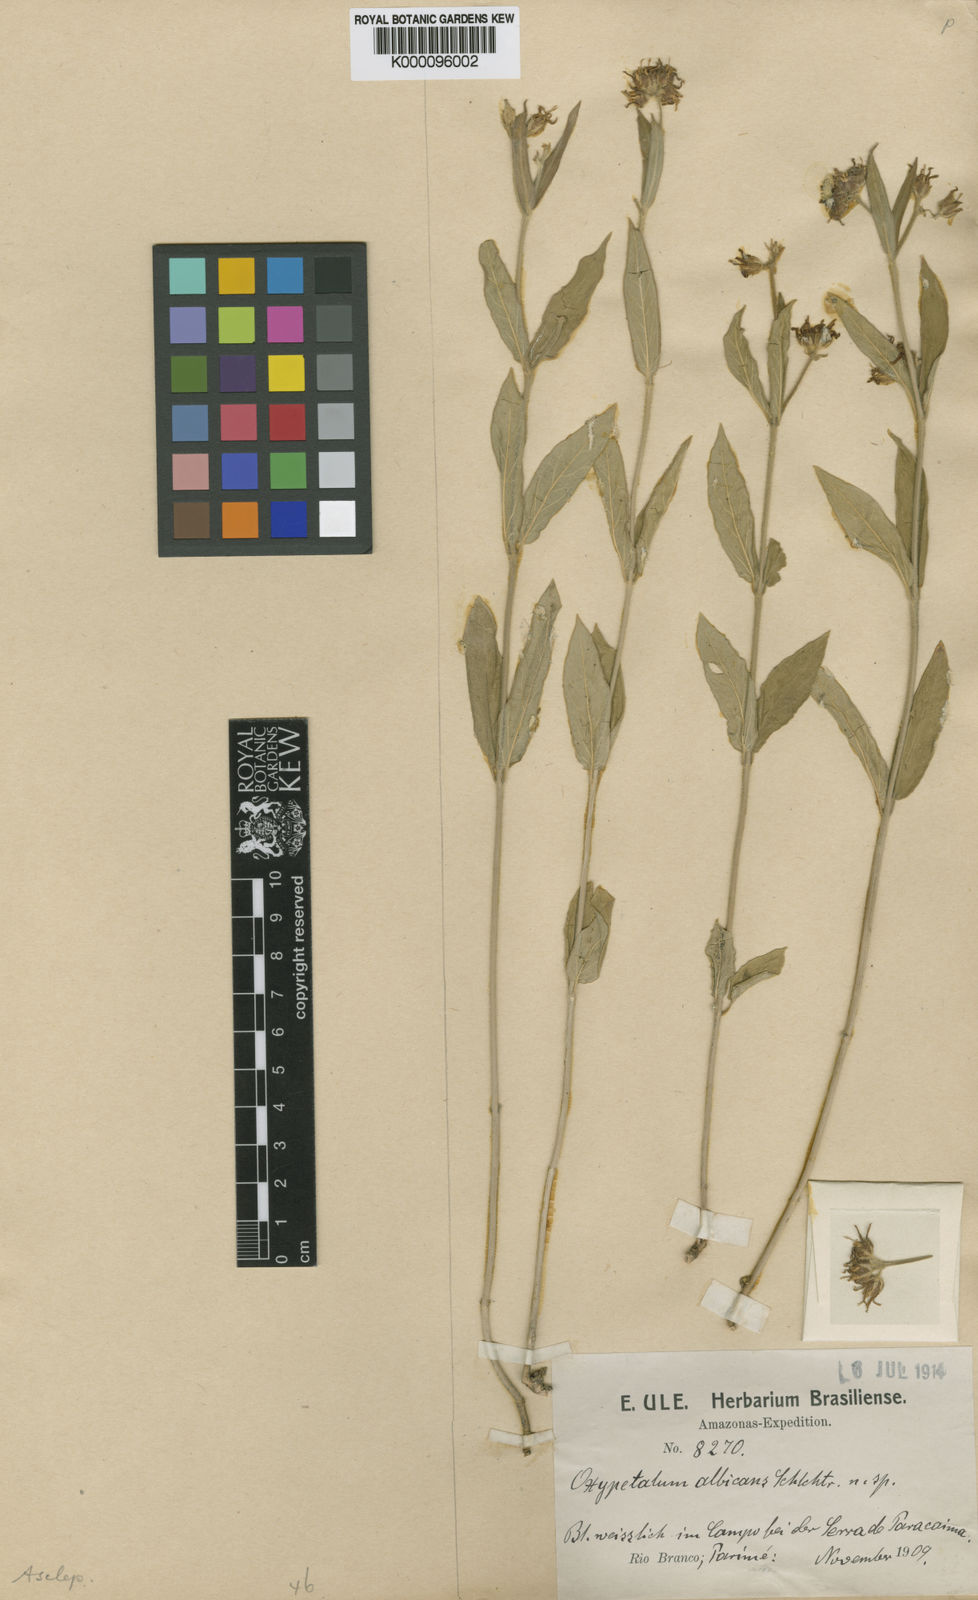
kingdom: Plantae
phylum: Tracheophyta
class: Magnoliopsida
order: Gentianales
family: Apocynaceae
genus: Oxypetalum
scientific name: Oxypetalum capitatum
